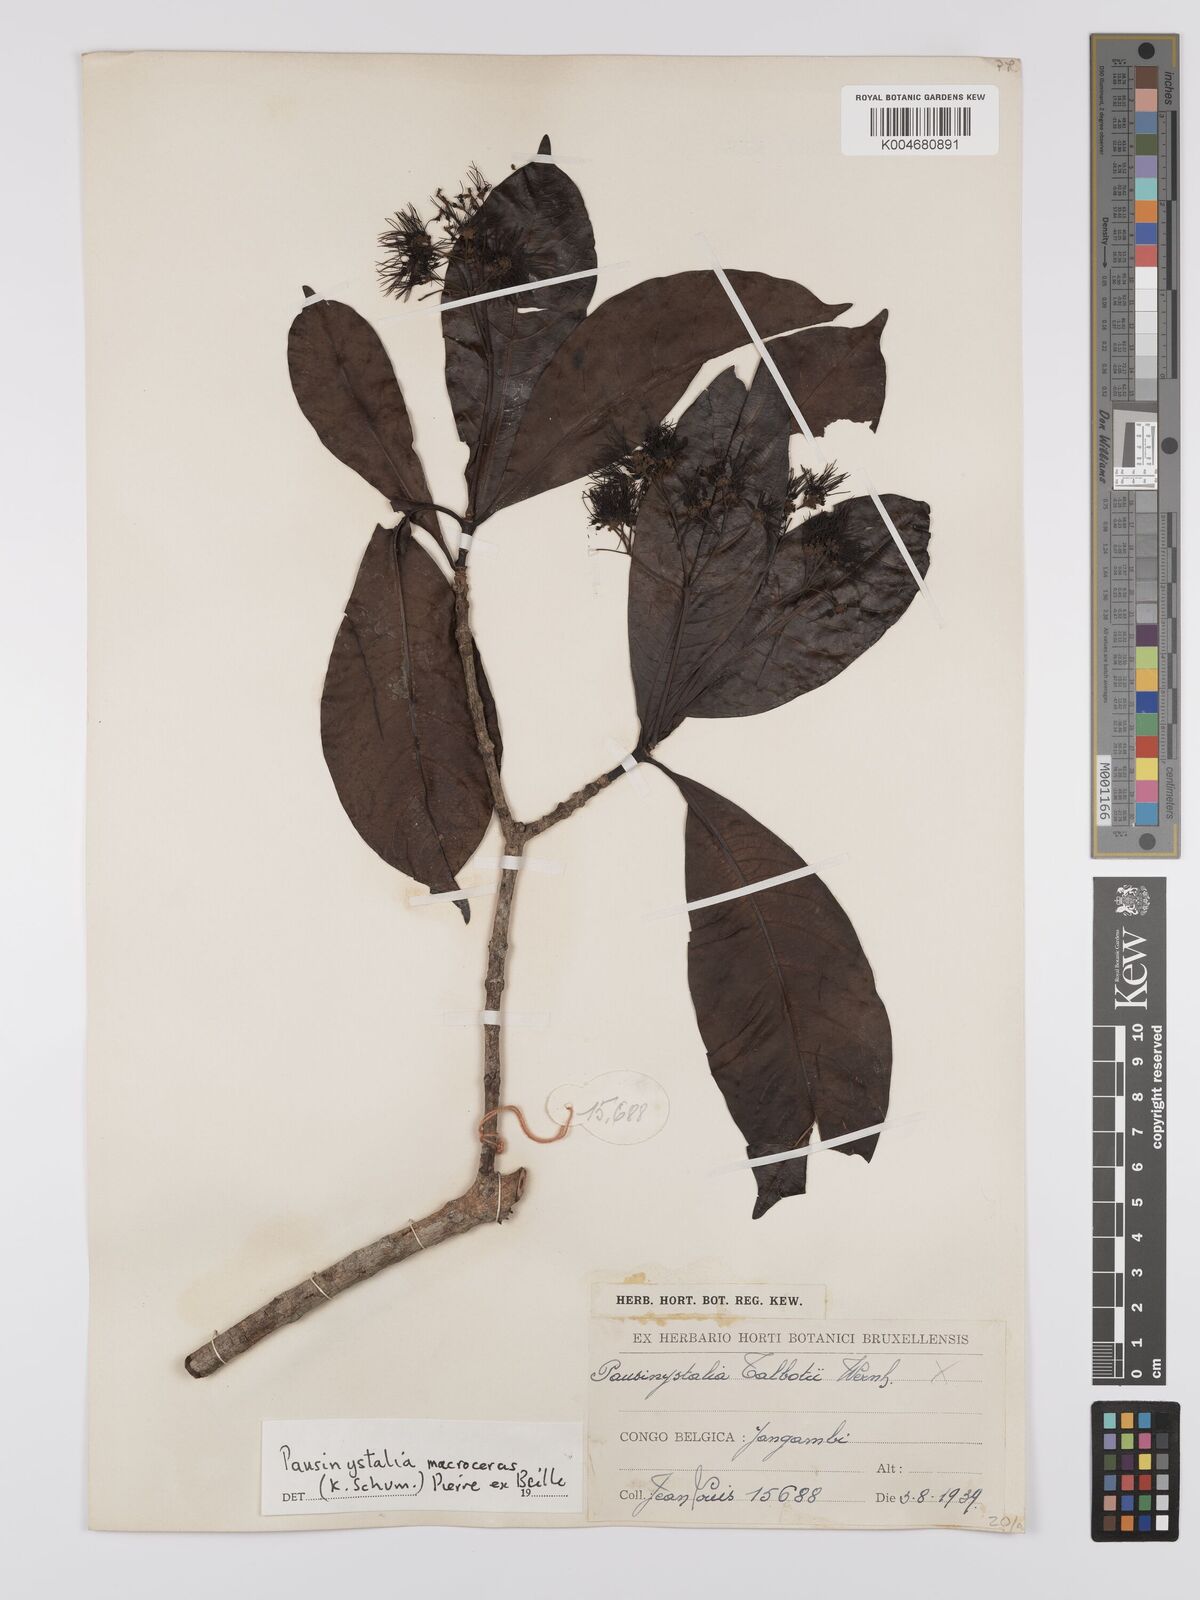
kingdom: Plantae
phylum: Tracheophyta
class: Magnoliopsida
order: Gentianales
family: Rubiaceae
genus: Corynanthe
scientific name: Corynanthe macroceras
